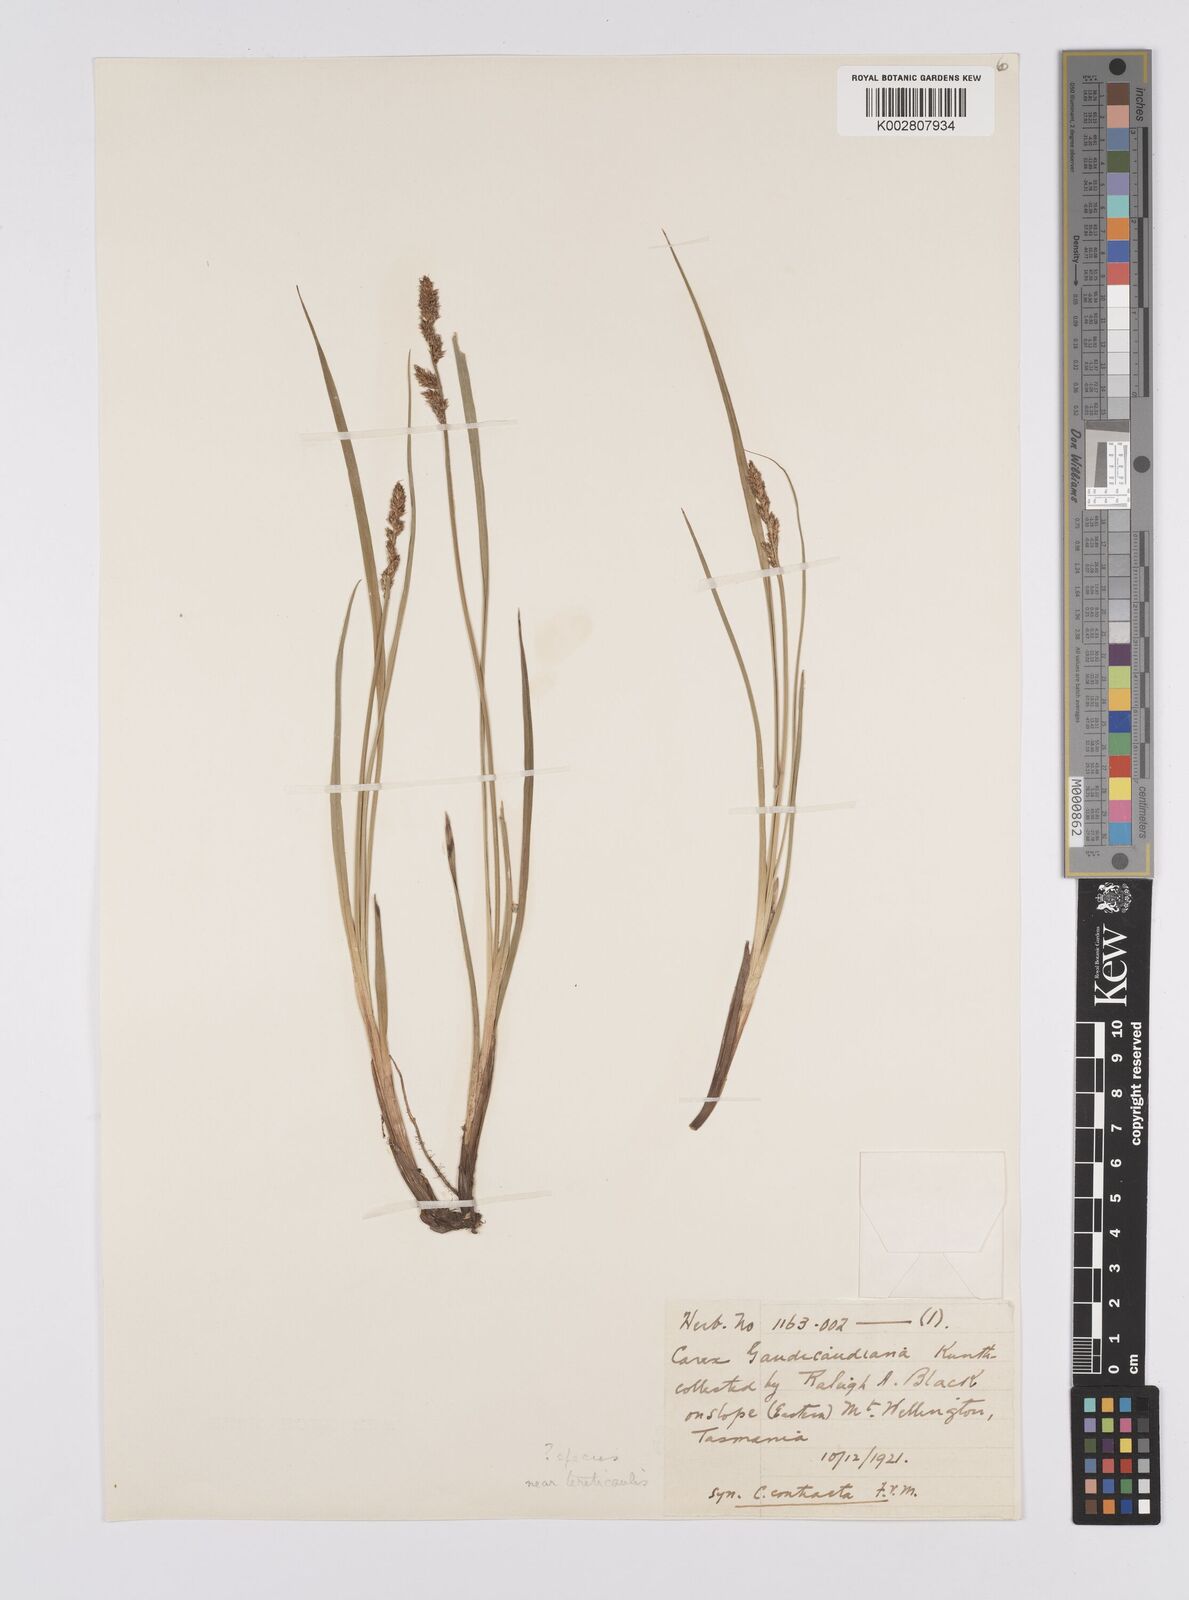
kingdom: Plantae
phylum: Tracheophyta
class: Liliopsida
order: Poales
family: Cyperaceae
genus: Carex
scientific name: Carex appressa
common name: Tussock sedge
